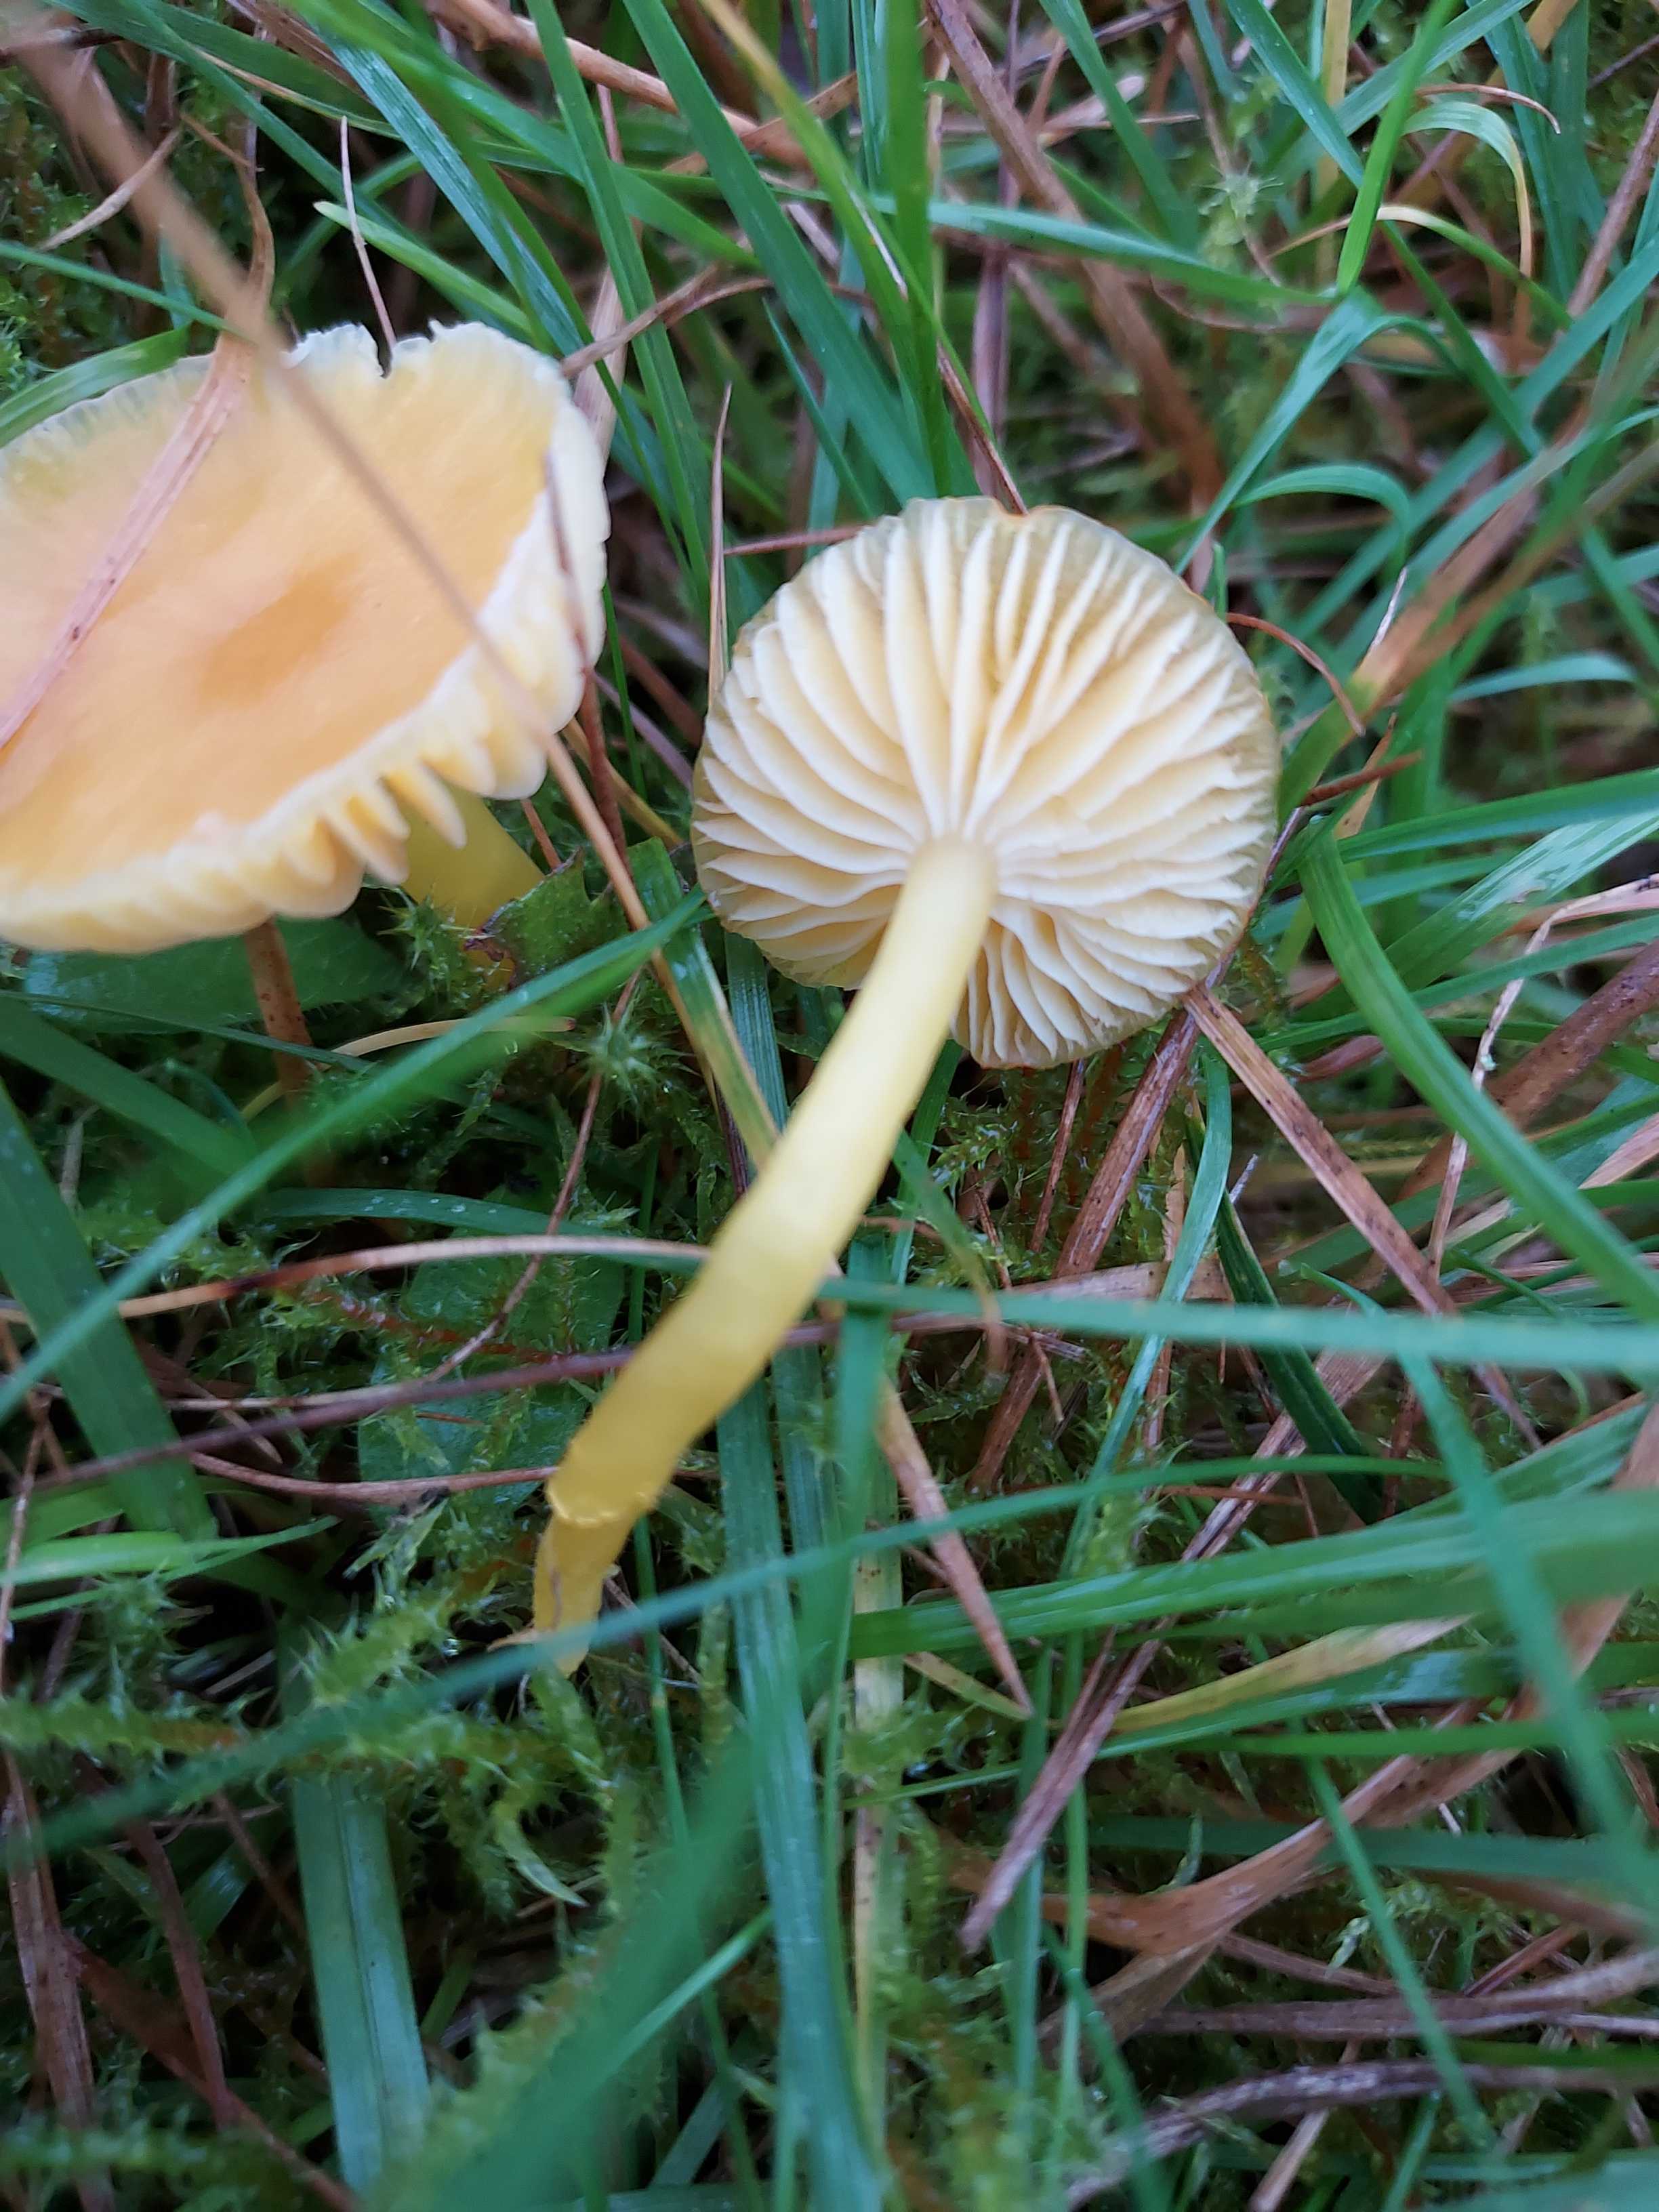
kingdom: Fungi
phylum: Basidiomycota
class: Agaricomycetes
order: Agaricales
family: Hygrophoraceae
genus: Hygrocybe
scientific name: Hygrocybe ceracea
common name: voksgul vokshat
